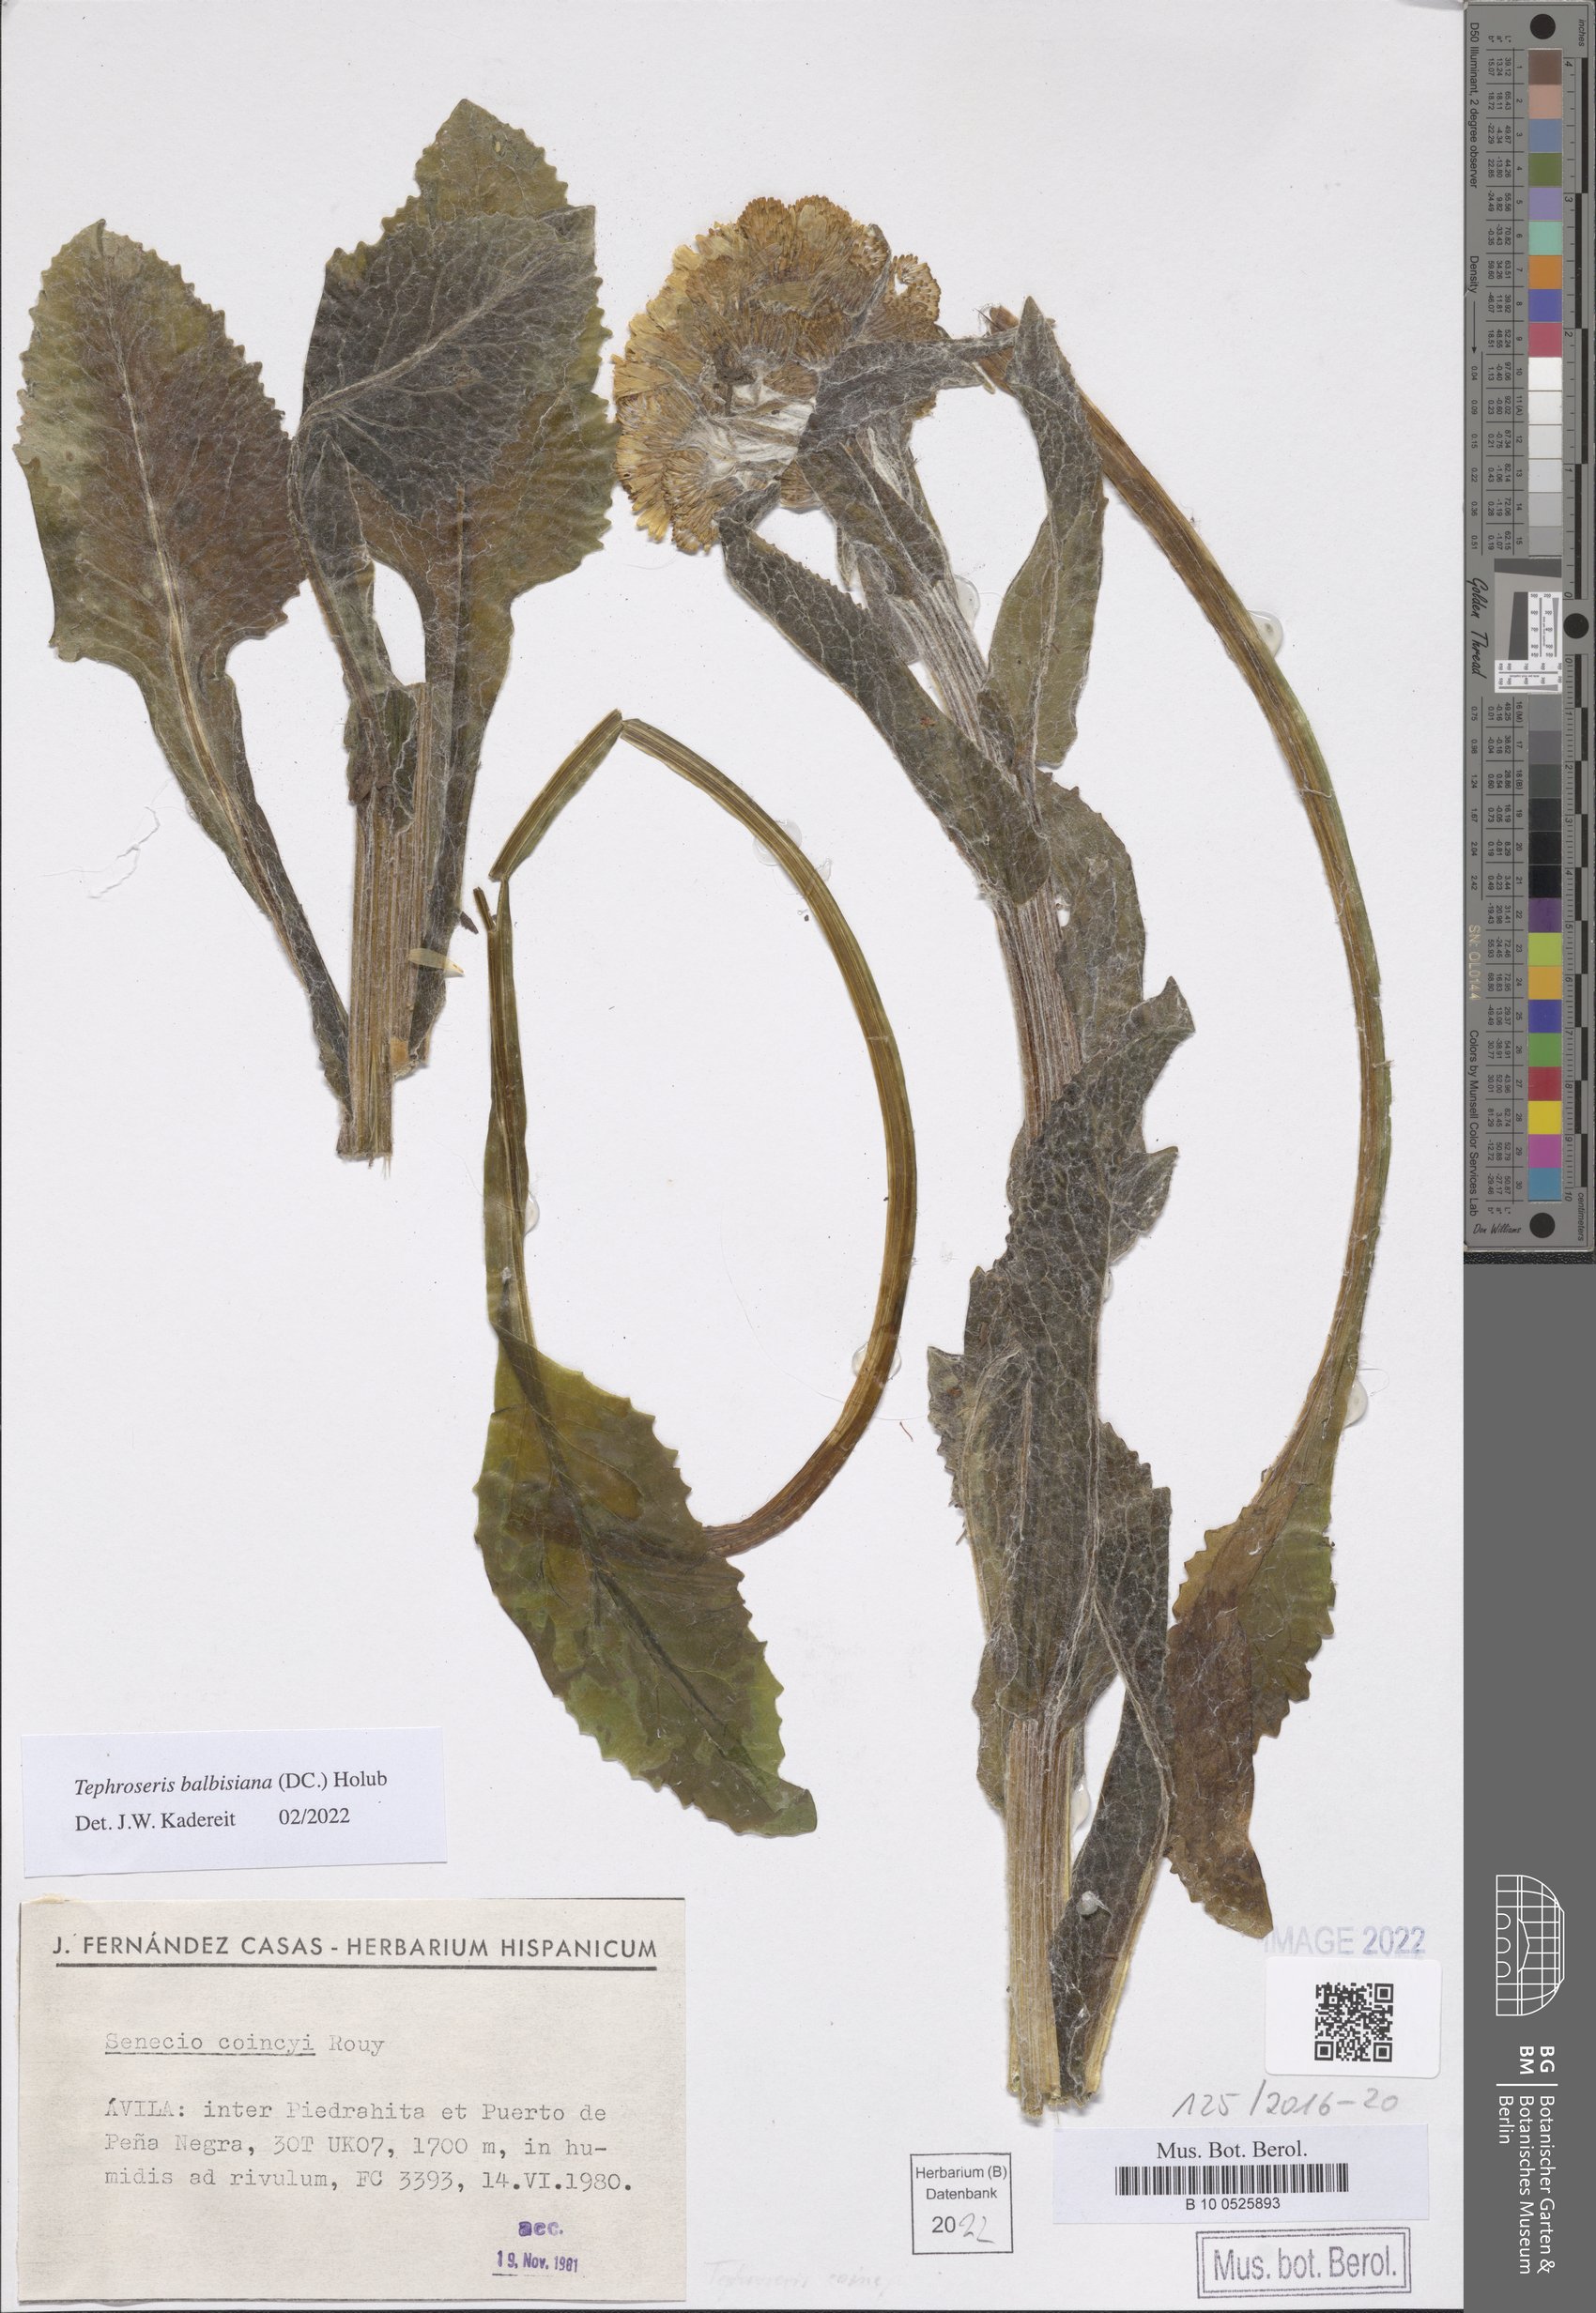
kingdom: Plantae
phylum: Tracheophyta
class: Magnoliopsida
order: Asterales
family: Asteraceae
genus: Tephroseris
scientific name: Tephroseris balbisiana
